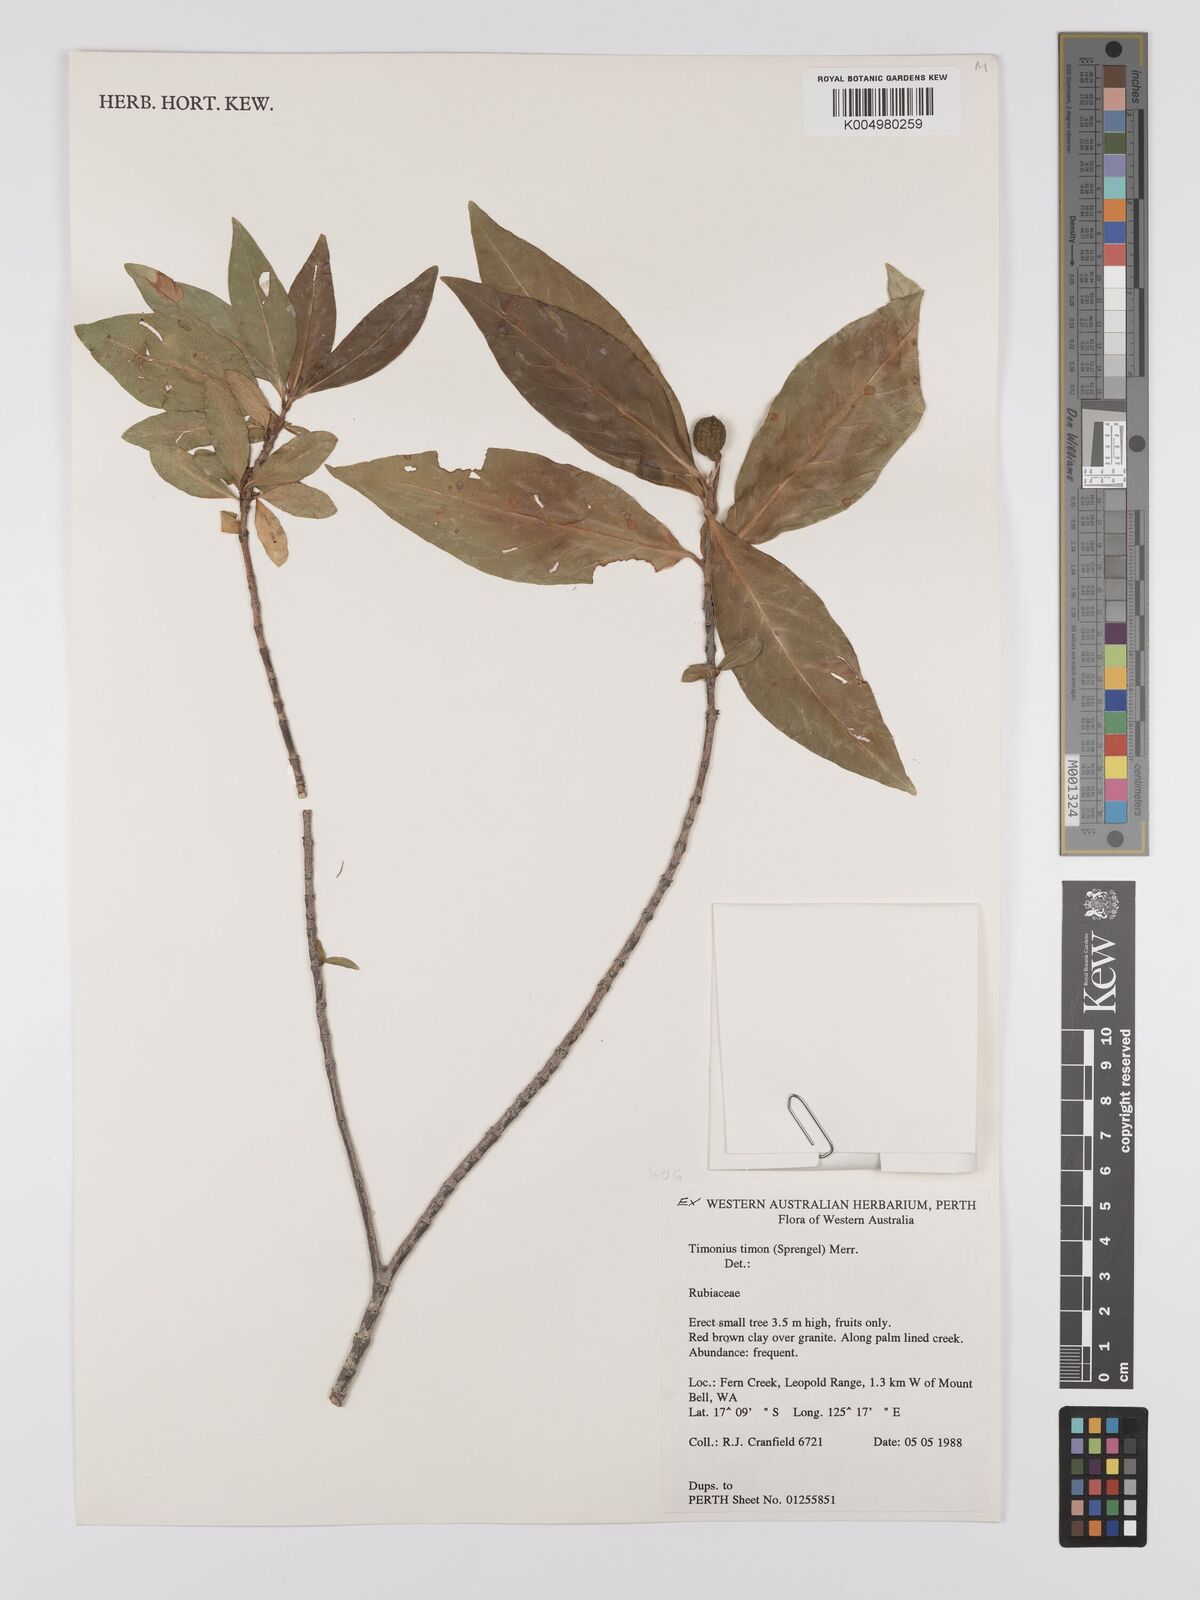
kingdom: Plantae
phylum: Tracheophyta
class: Magnoliopsida
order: Gentianales
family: Rubiaceae
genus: Timonius
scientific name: Timonius timon
